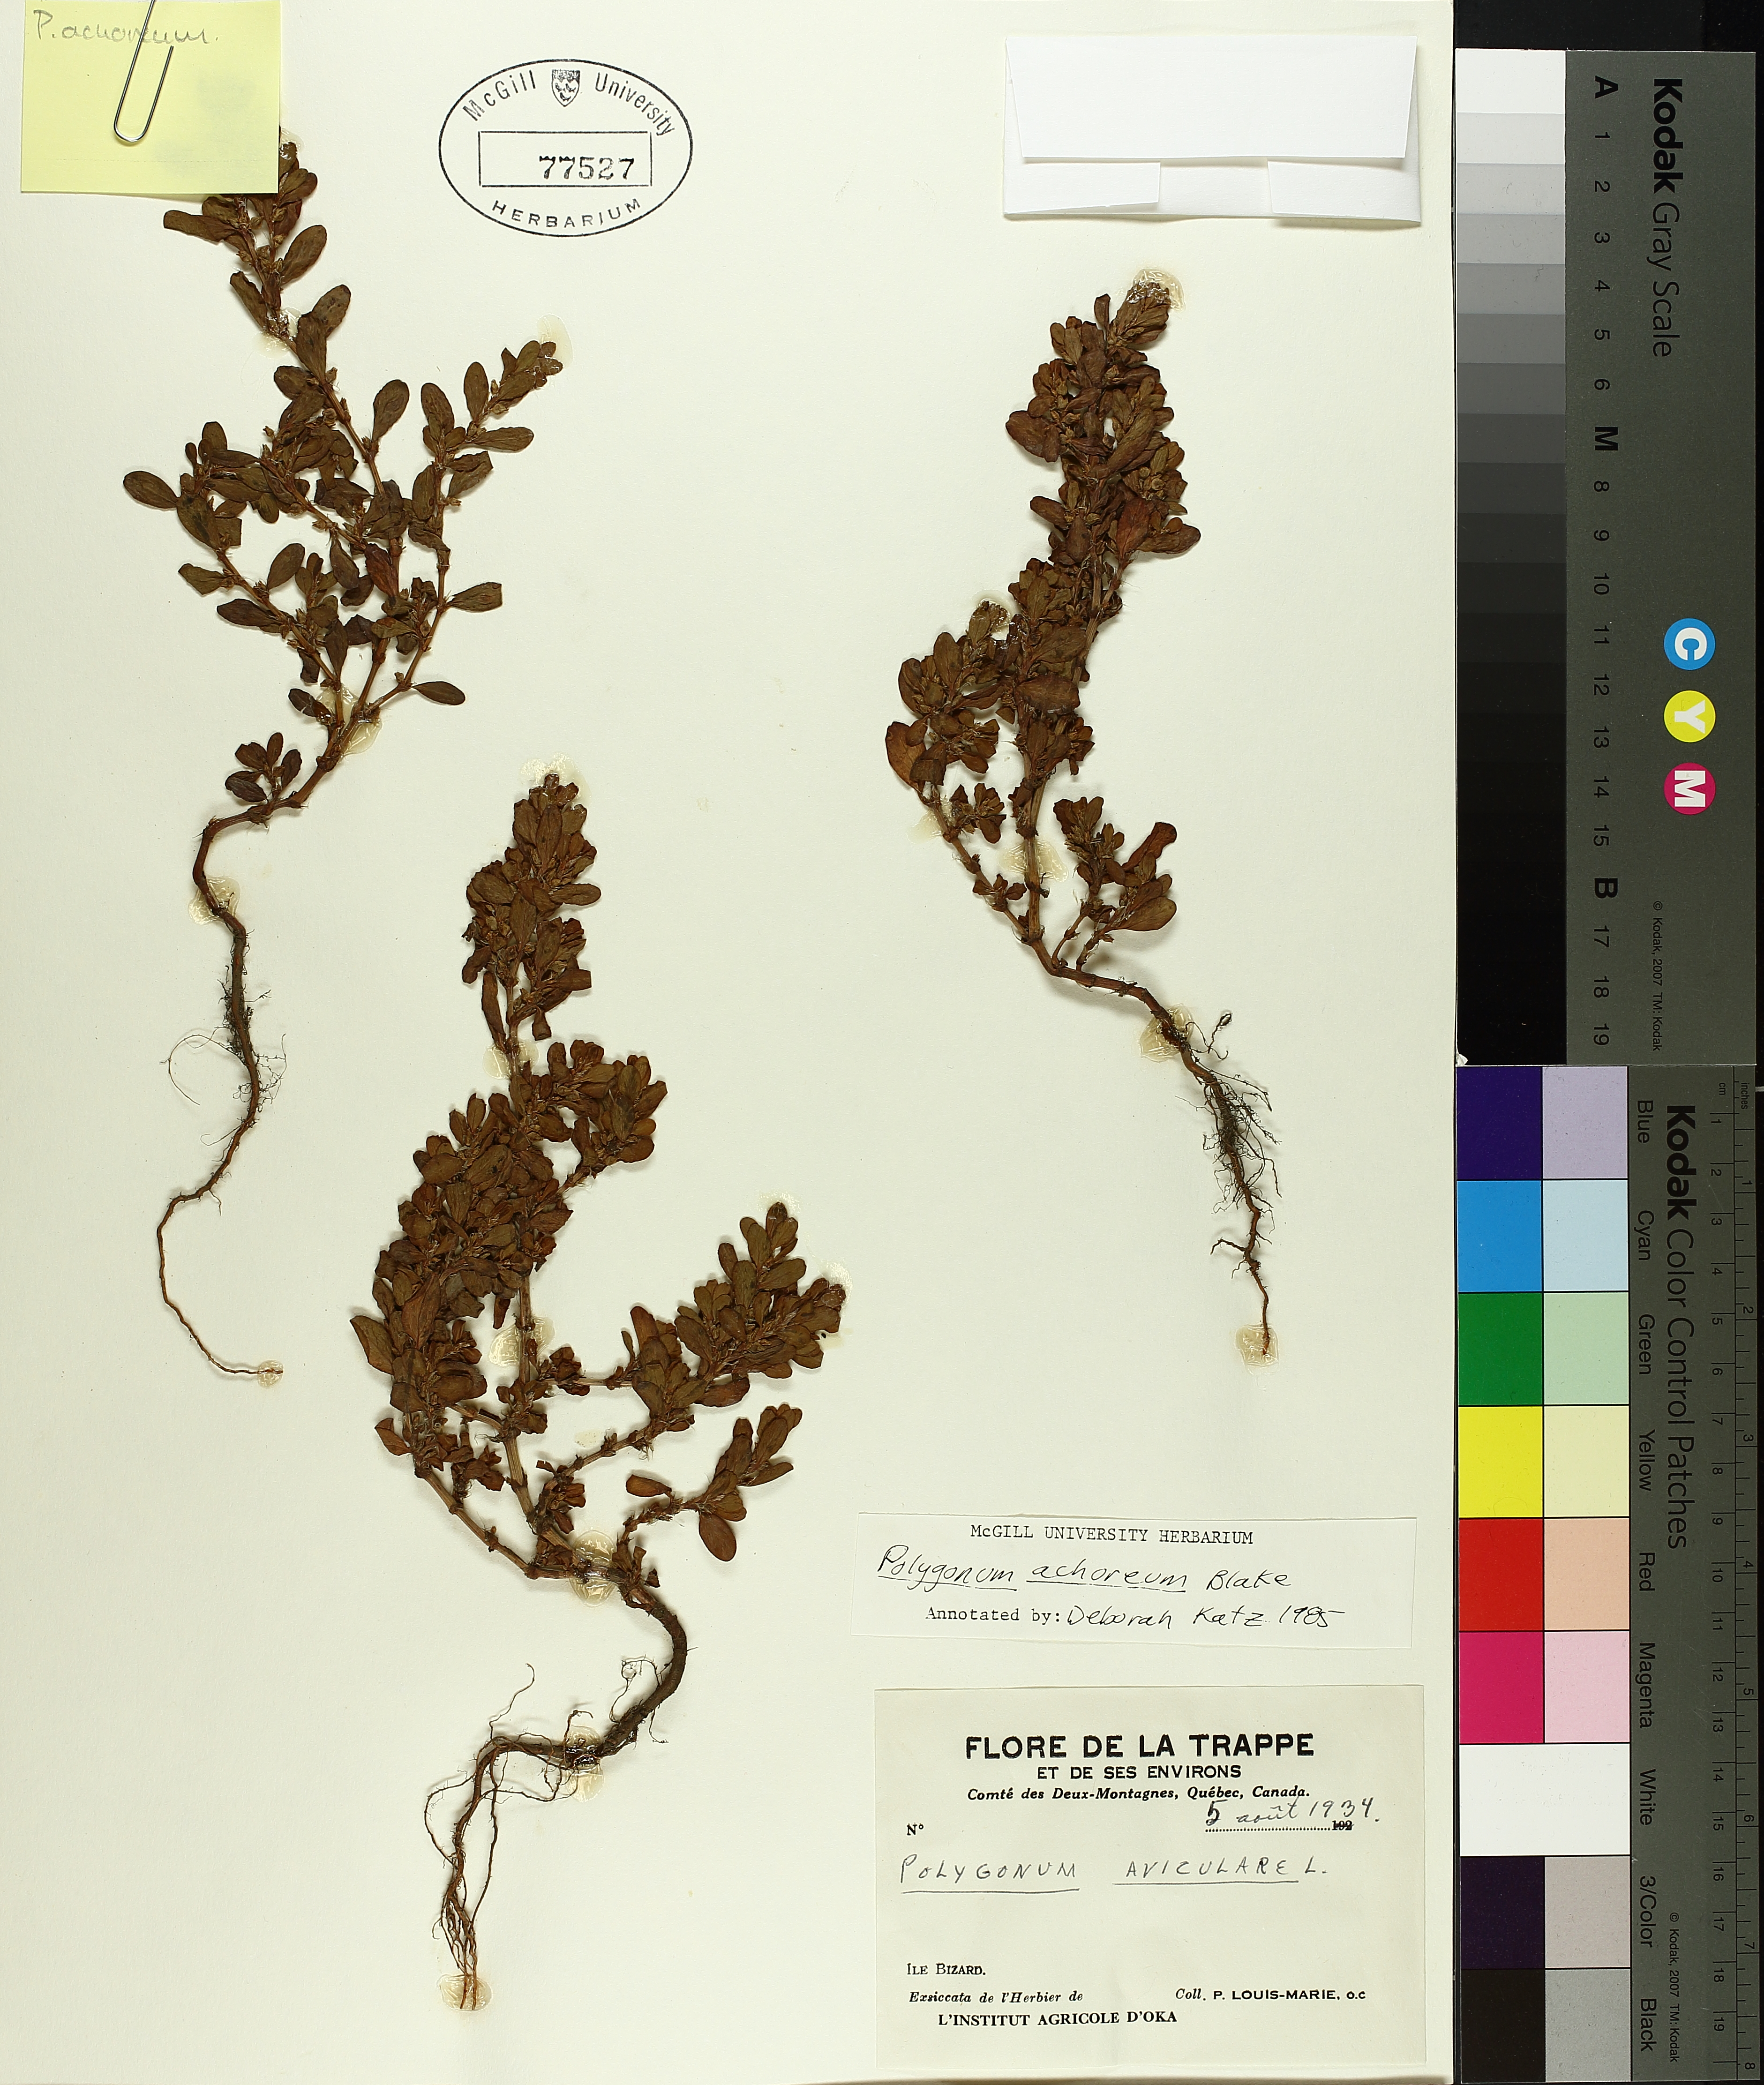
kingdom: Plantae
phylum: Tracheophyta
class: Magnoliopsida
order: Caryophyllales
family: Polygonaceae
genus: Polygonum
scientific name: Polygonum achoreum
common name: Striate knotweed
